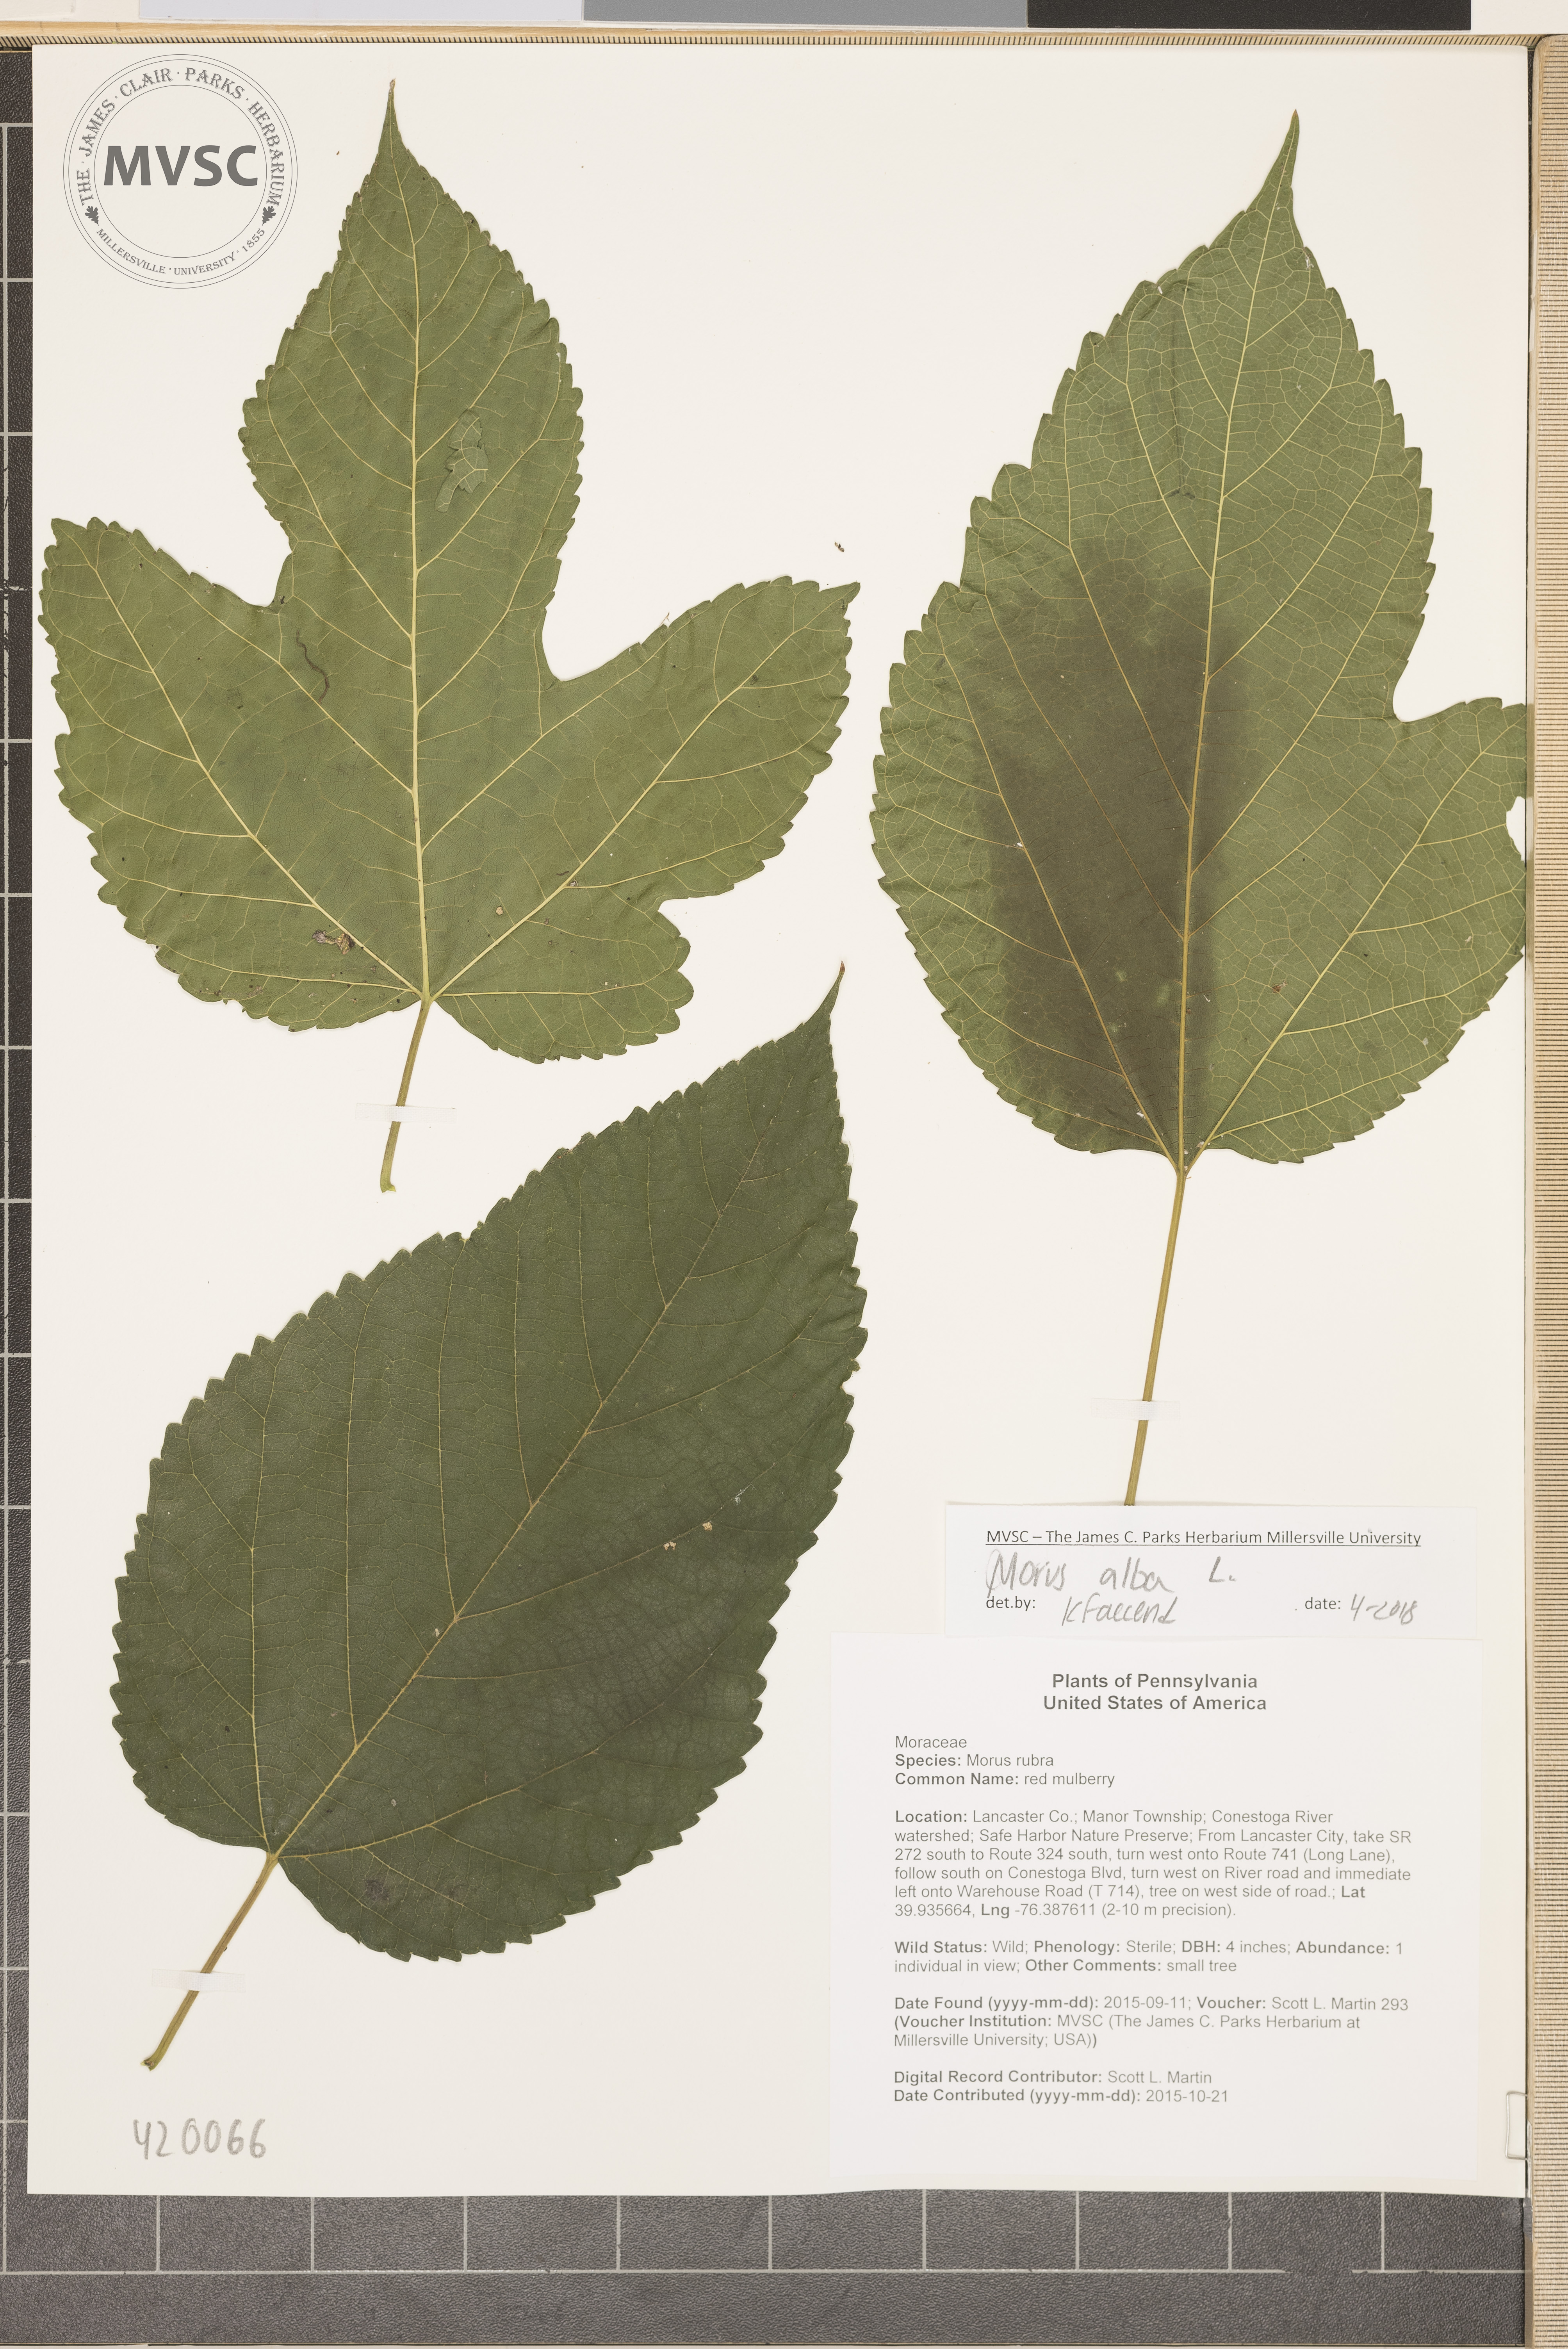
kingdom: Plantae
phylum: Tracheophyta
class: Magnoliopsida
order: Rosales
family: Moraceae
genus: Morus
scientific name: Morus alba
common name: White mulberry
